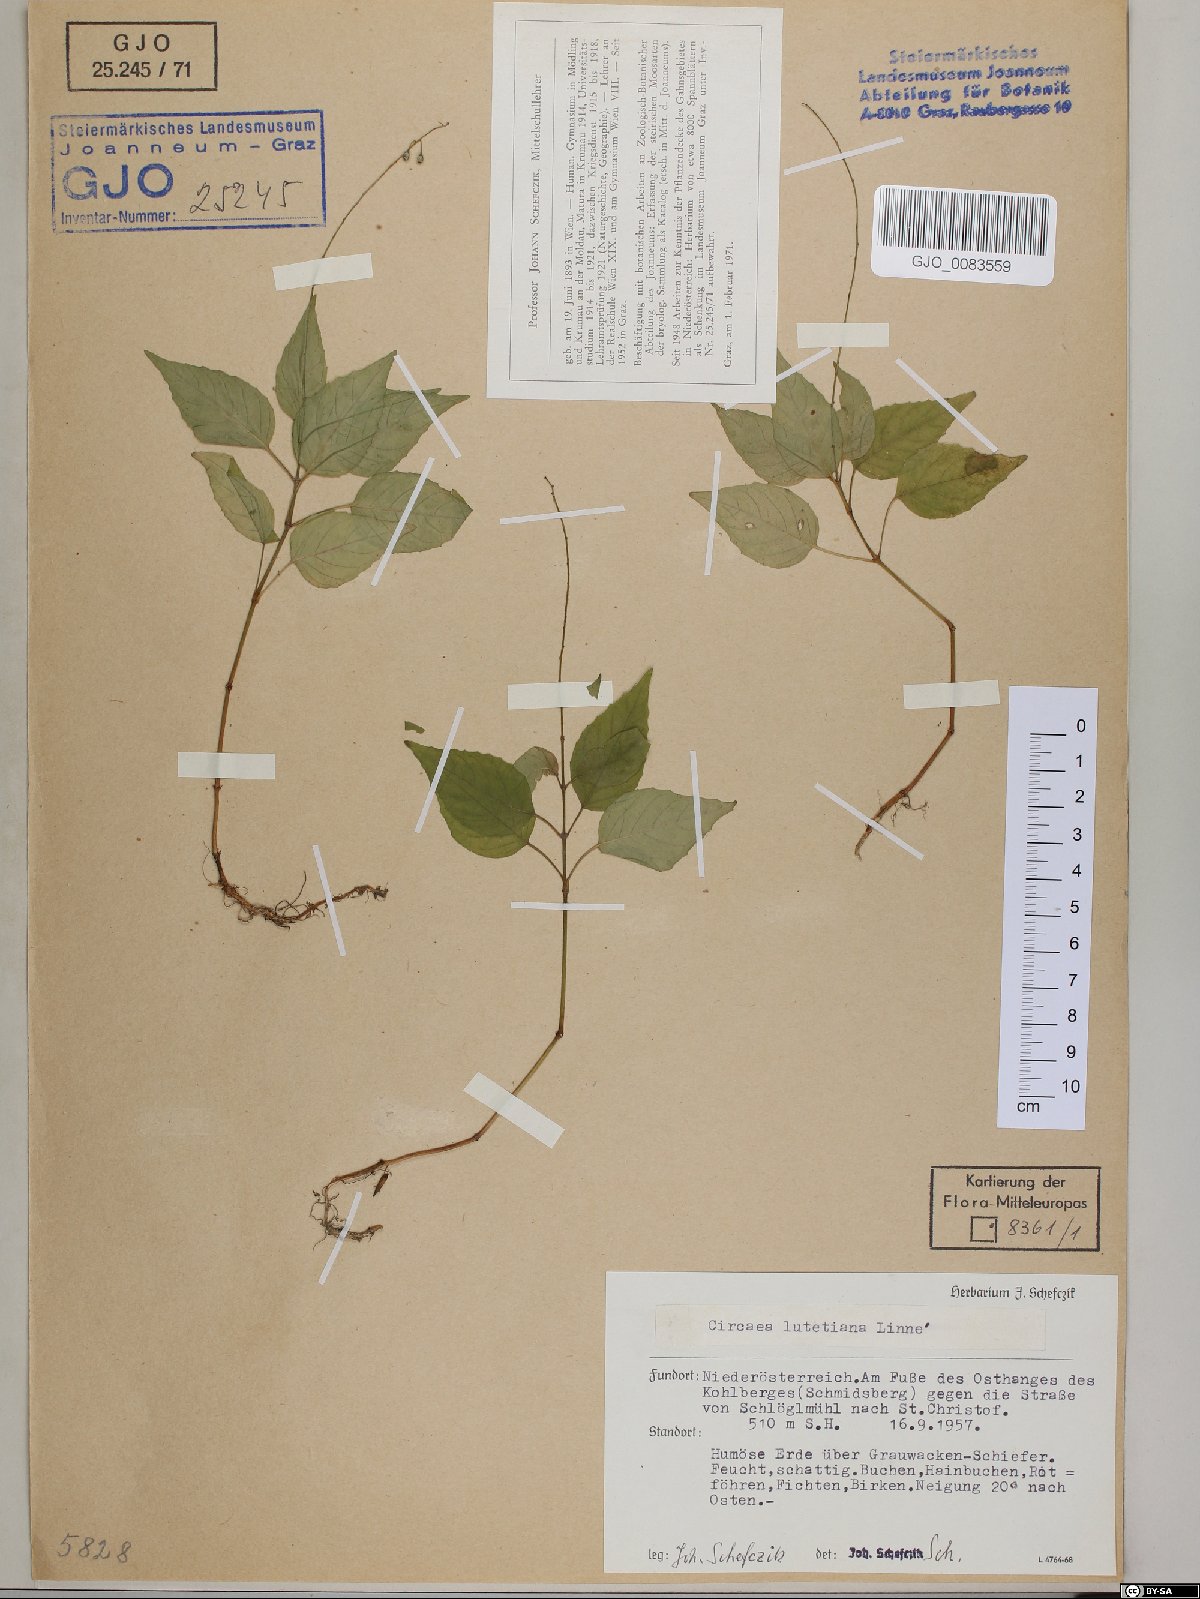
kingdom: Plantae
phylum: Tracheophyta
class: Magnoliopsida
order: Myrtales
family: Onagraceae
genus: Circaea
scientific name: Circaea lutetiana
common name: Enchanter's-nightshade
